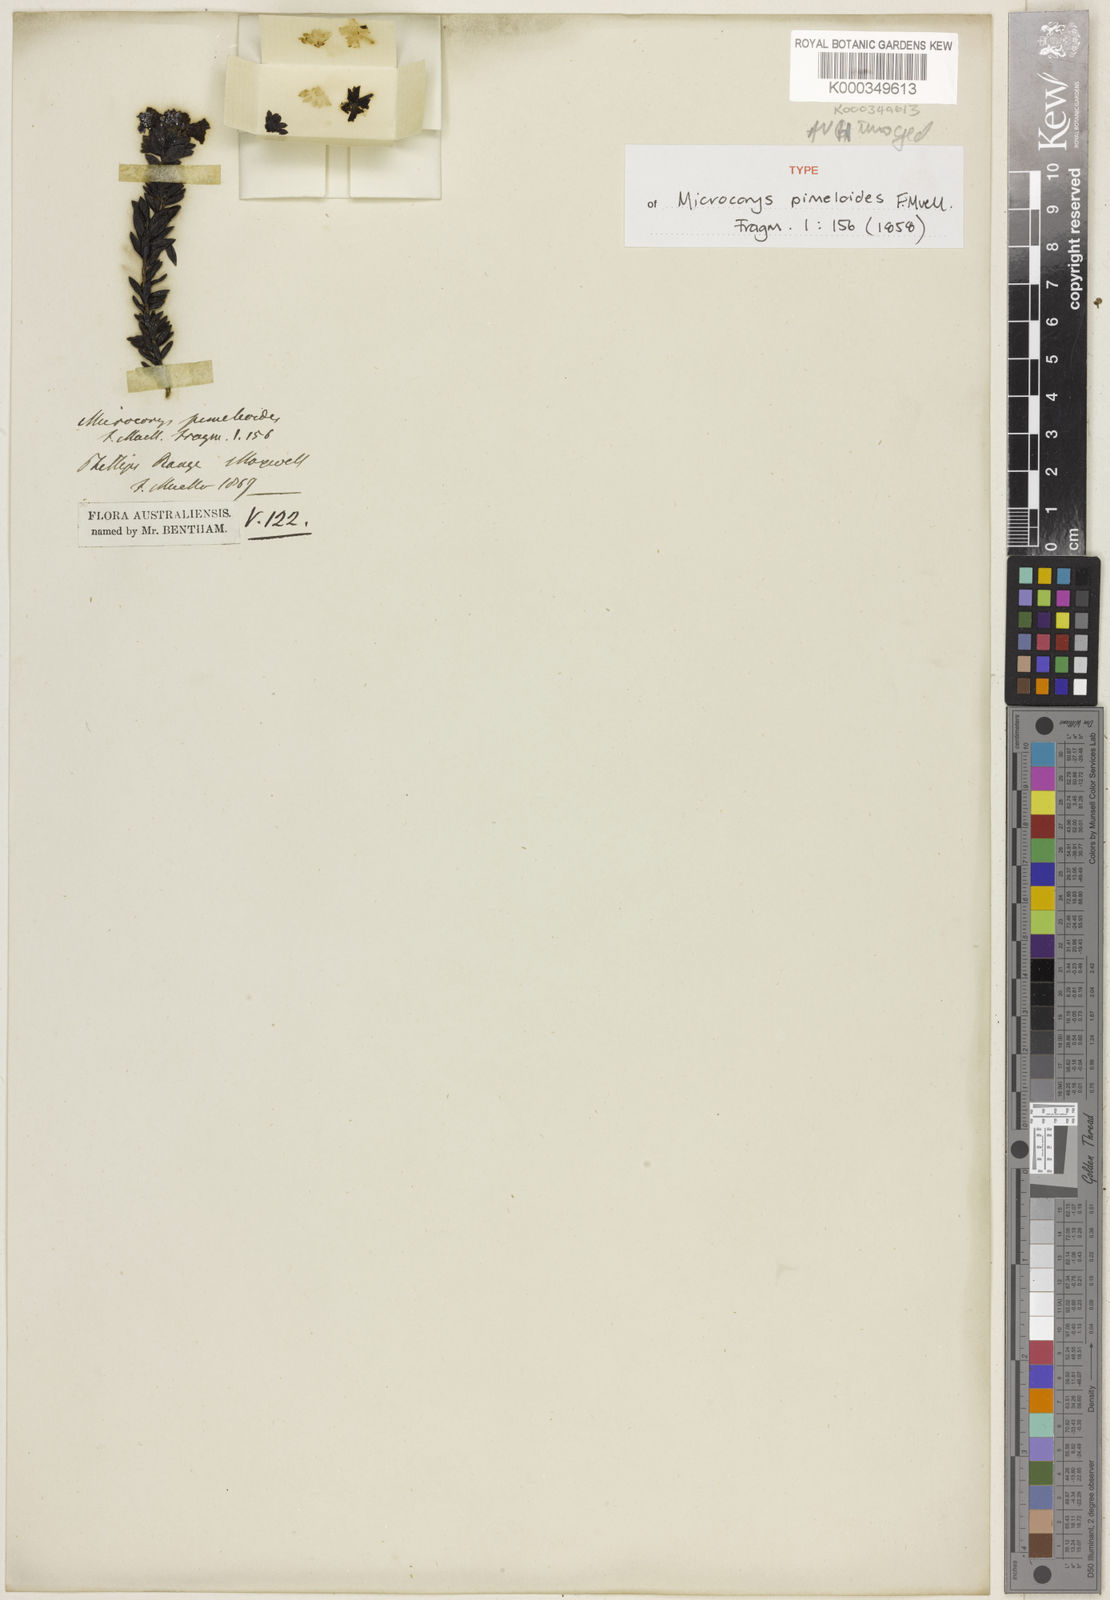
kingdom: Plantae
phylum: Tracheophyta
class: Magnoliopsida
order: Lamiales
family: Lamiaceae
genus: Microcorys
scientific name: Microcorys pimeloides
